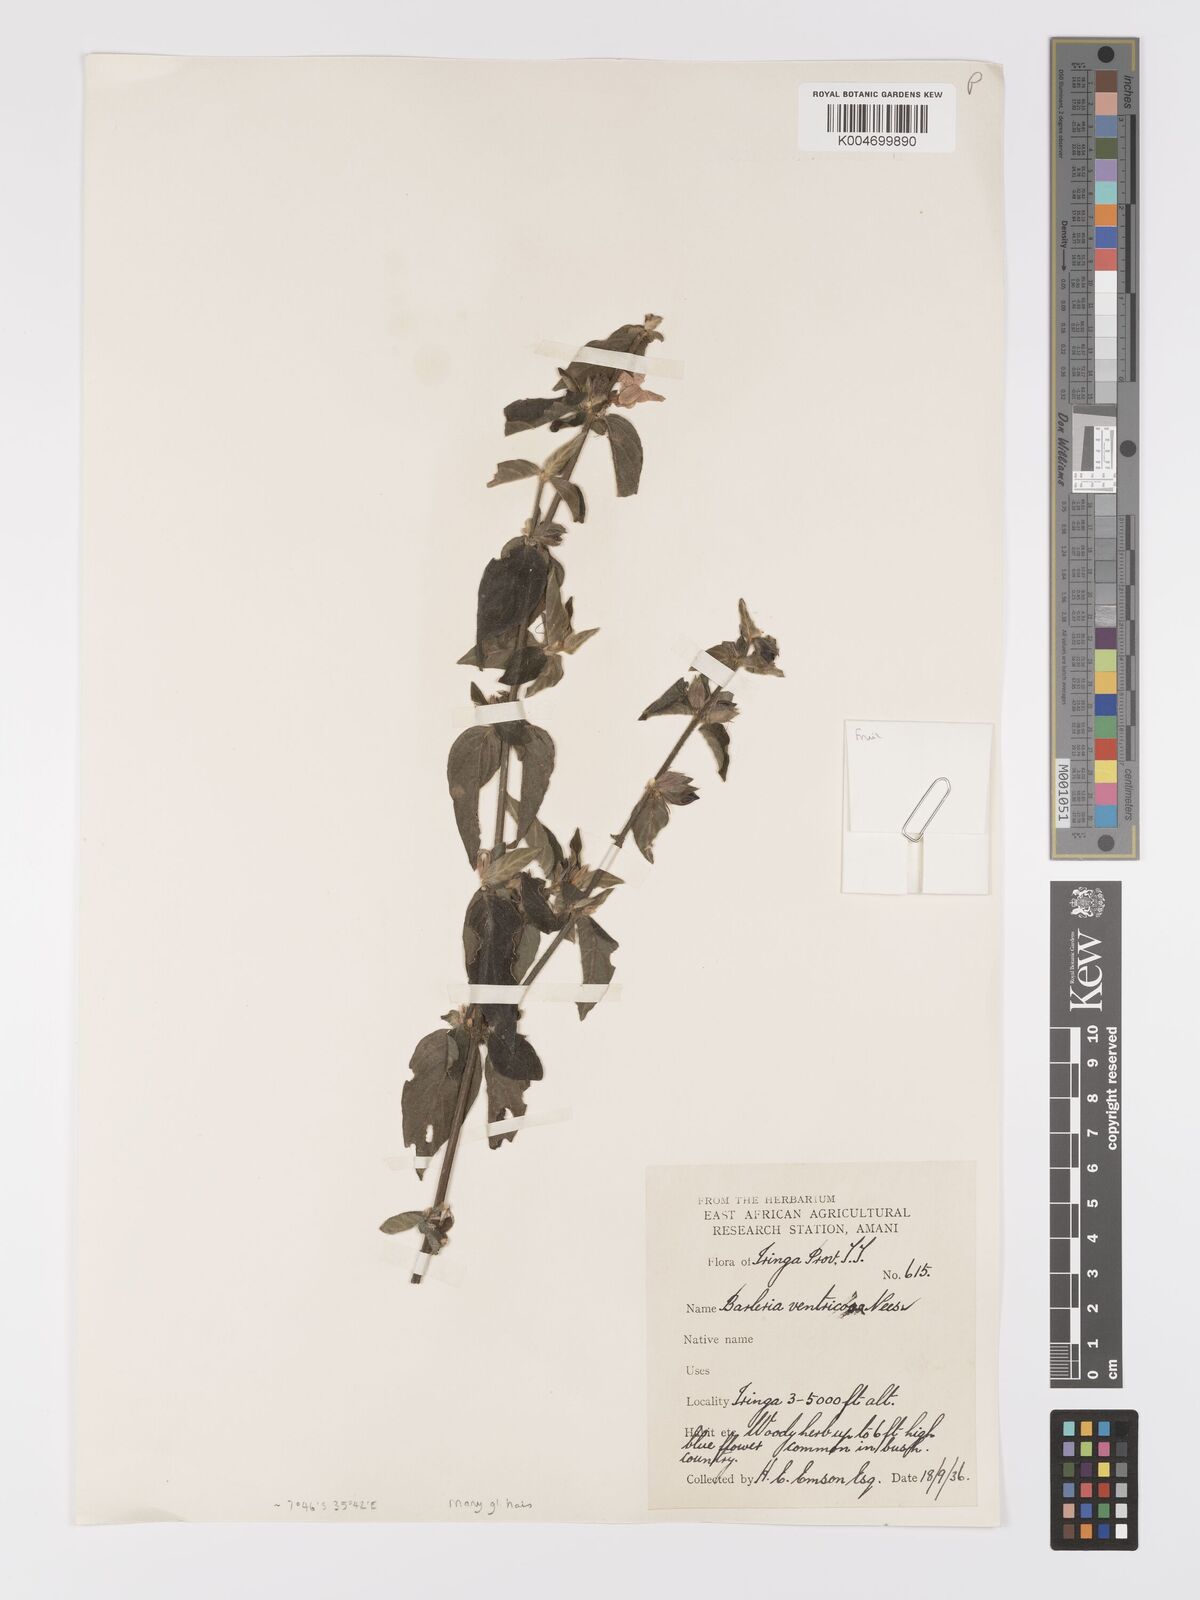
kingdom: Plantae
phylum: Tracheophyta
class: Magnoliopsida
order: Lamiales
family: Acanthaceae
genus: Barleria
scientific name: Barleria ventricosa
